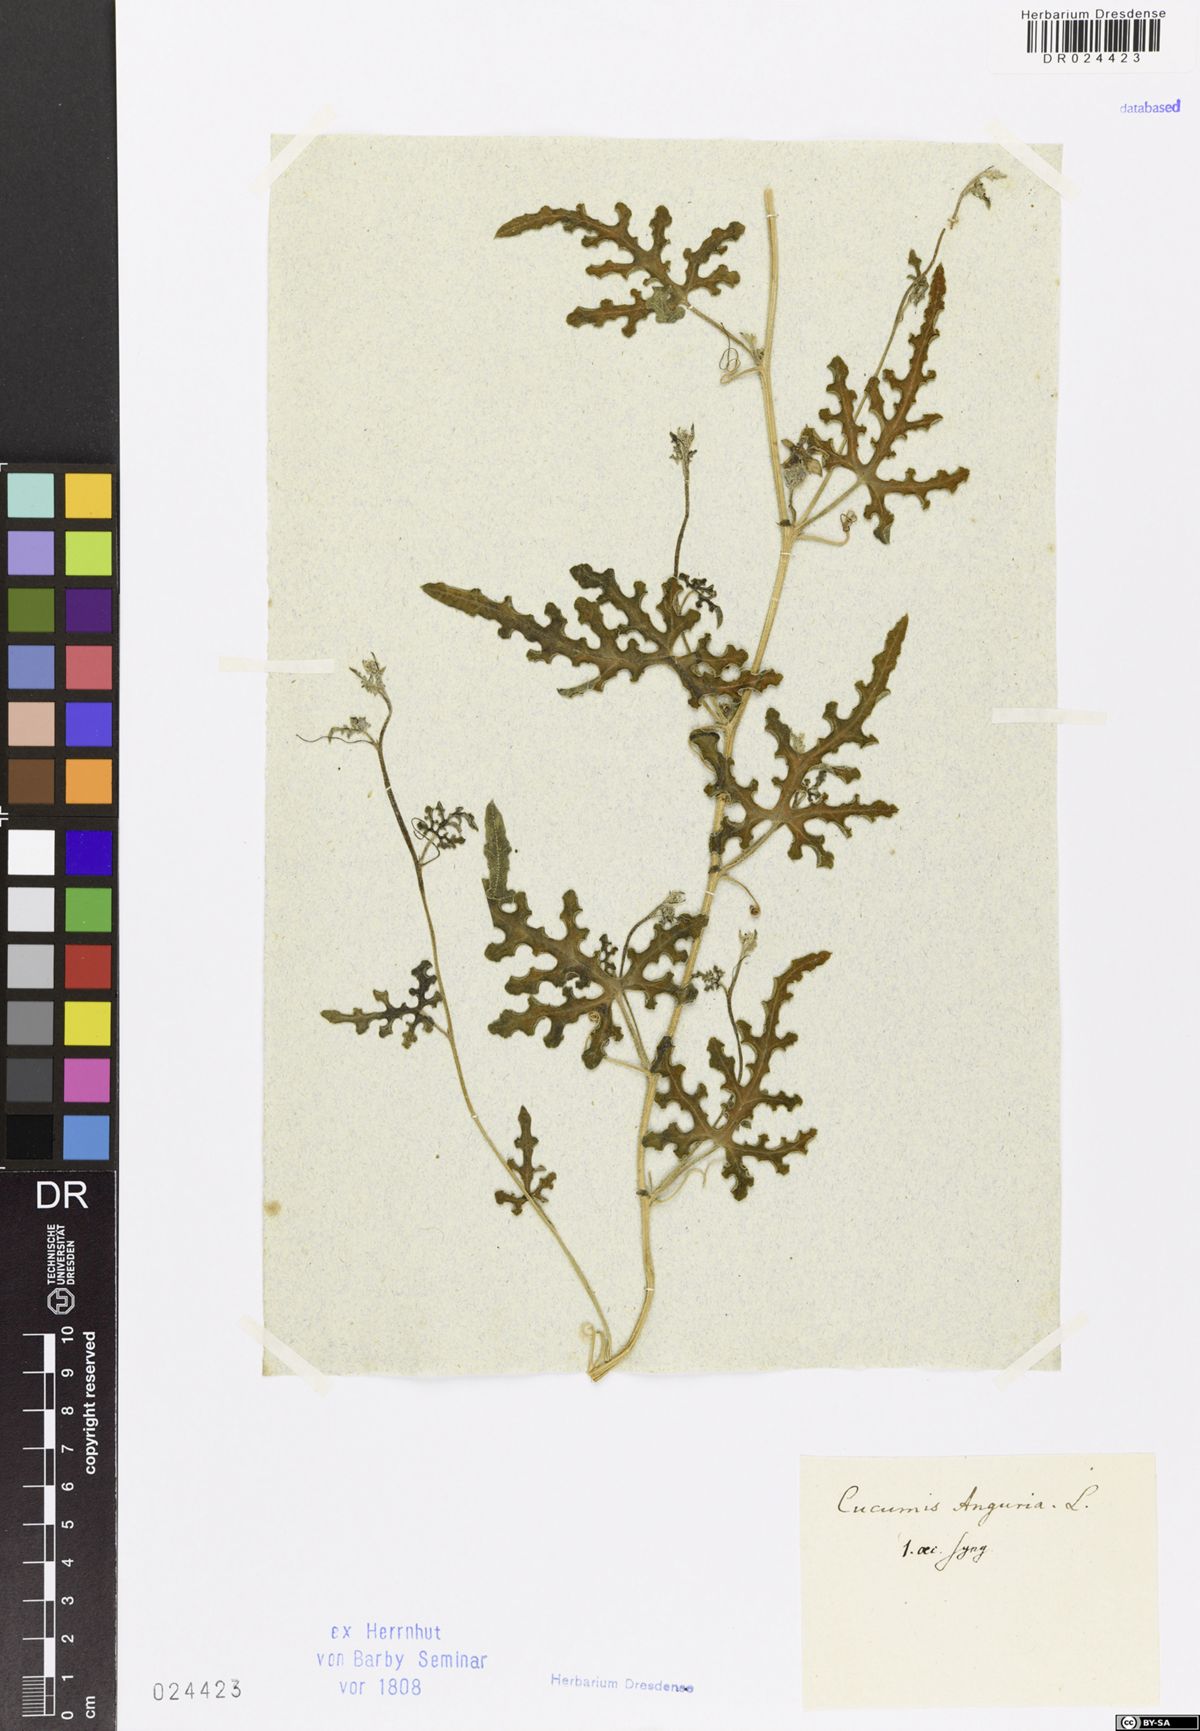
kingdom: Plantae
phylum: Tracheophyta
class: Magnoliopsida
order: Cucurbitales
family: Cucurbitaceae
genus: Cucumis
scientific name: Cucumis anguria
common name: West indian gherkin
